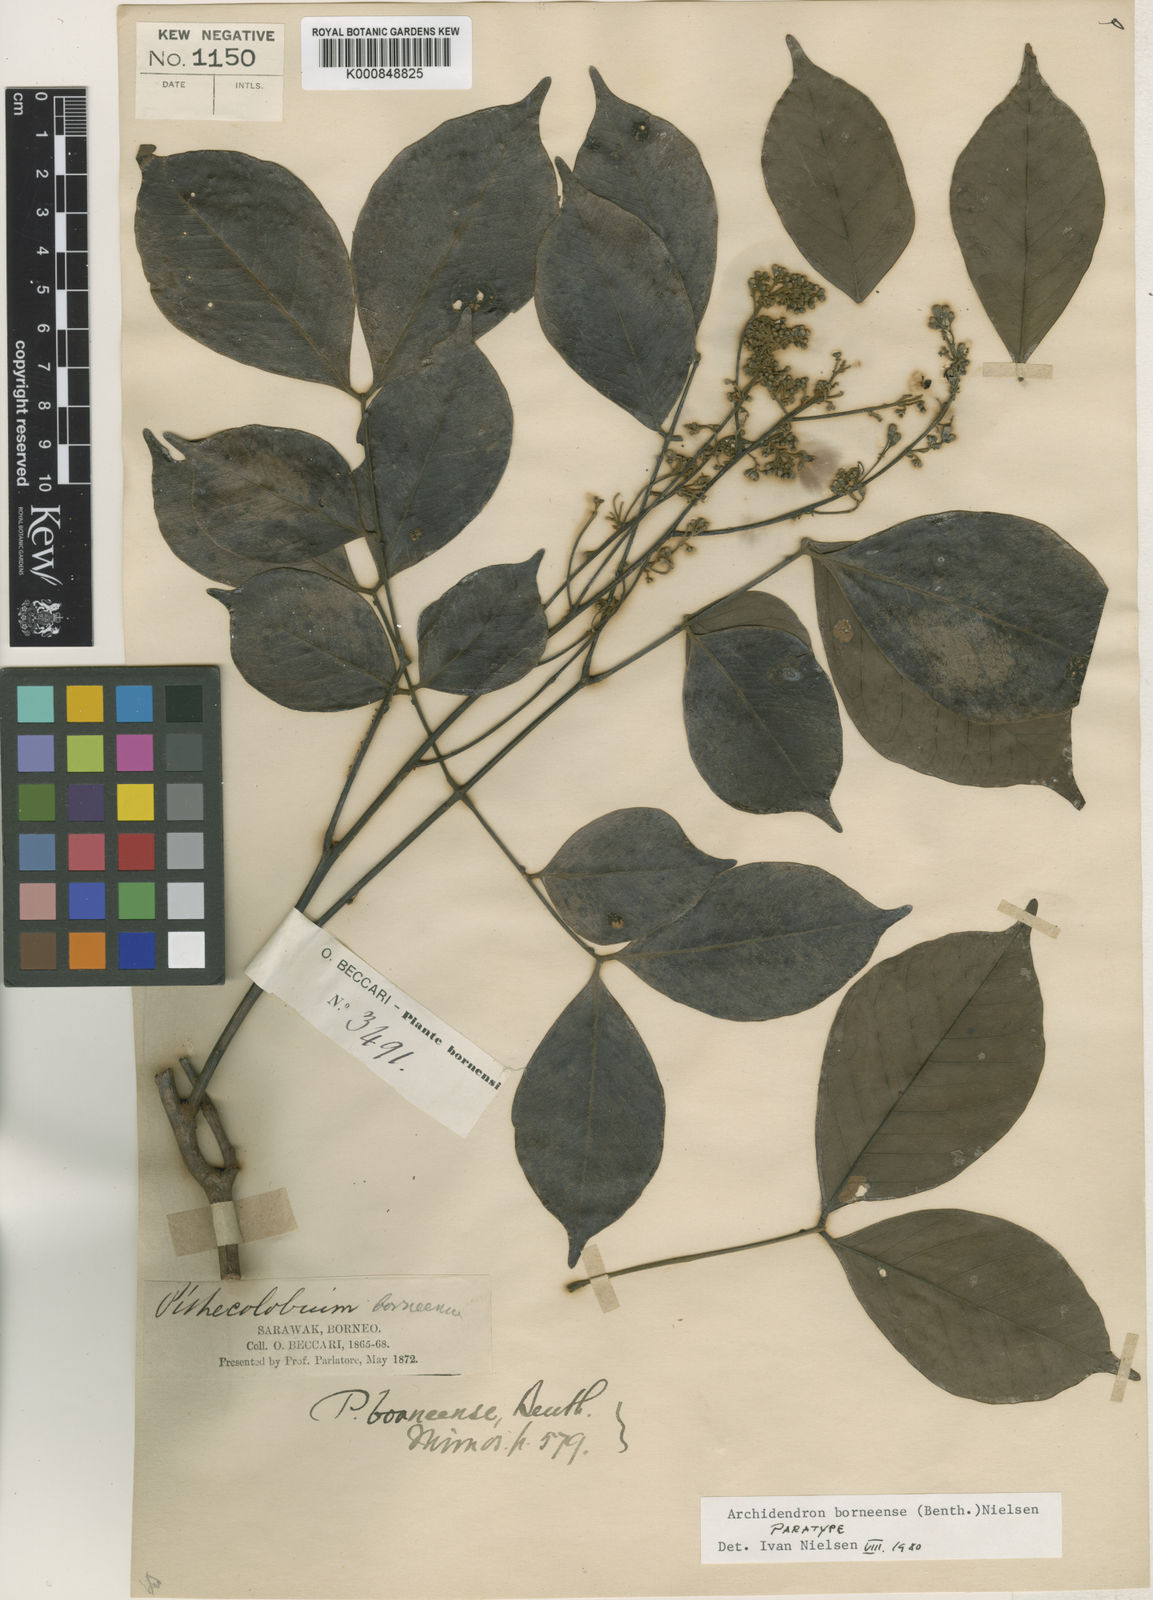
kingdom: Plantae
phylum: Tracheophyta
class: Magnoliopsida
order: Fabales
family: Fabaceae
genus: Archidendron
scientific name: Archidendron borneense
